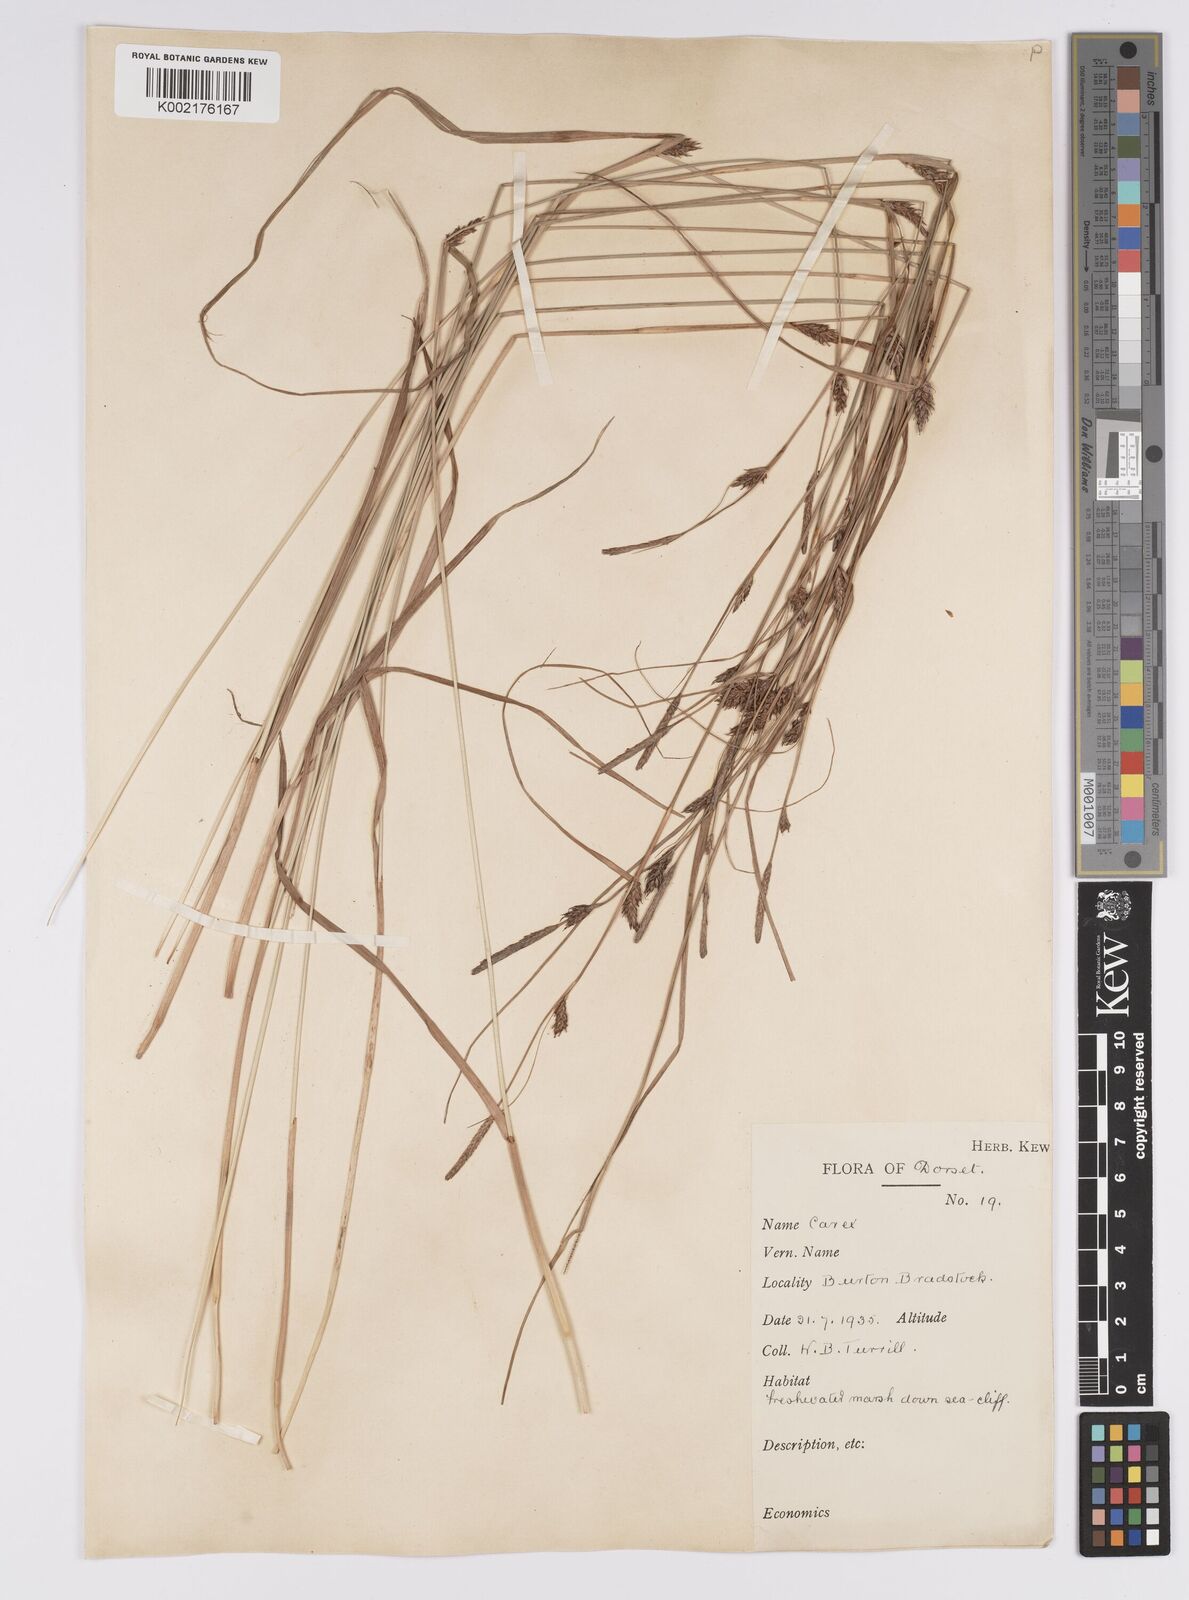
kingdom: Plantae
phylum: Tracheophyta
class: Liliopsida
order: Poales
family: Cyperaceae
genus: Carex
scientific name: Carex distans
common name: Distant sedge
